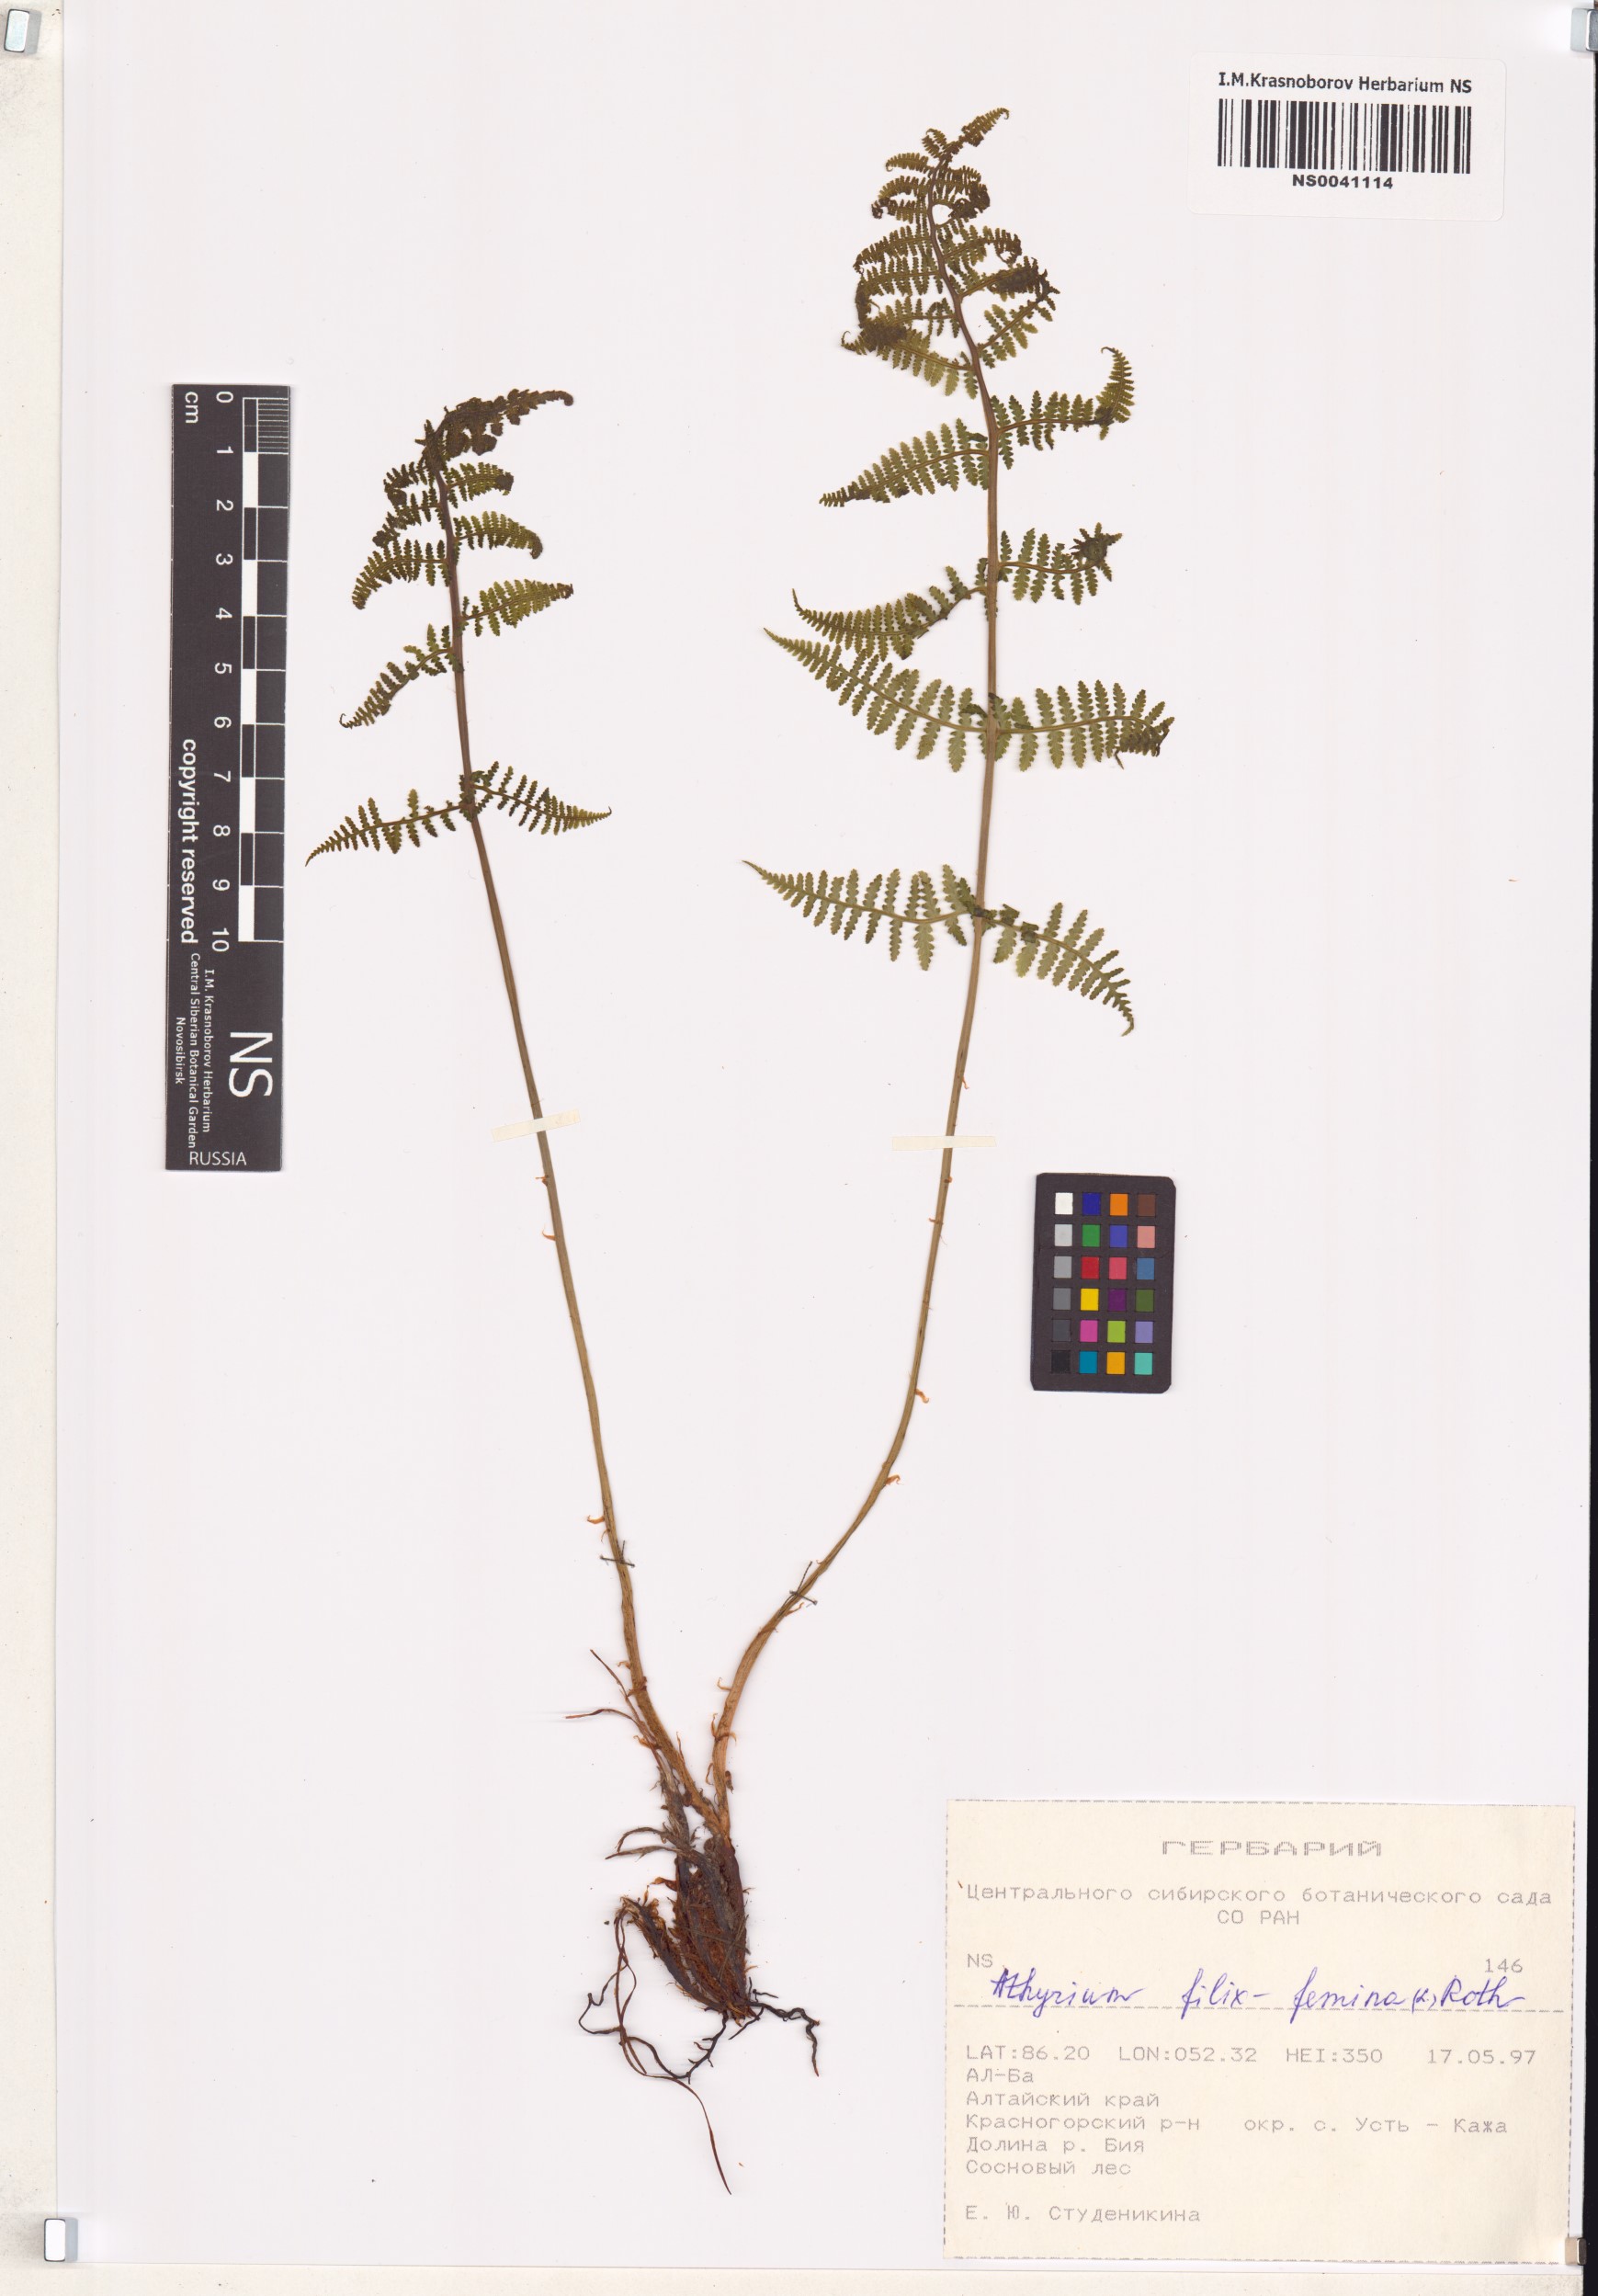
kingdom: Plantae
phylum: Tracheophyta
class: Polypodiopsida
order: Polypodiales
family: Athyriaceae
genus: Athyrium
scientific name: Athyrium filix-femina
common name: Lady fern
